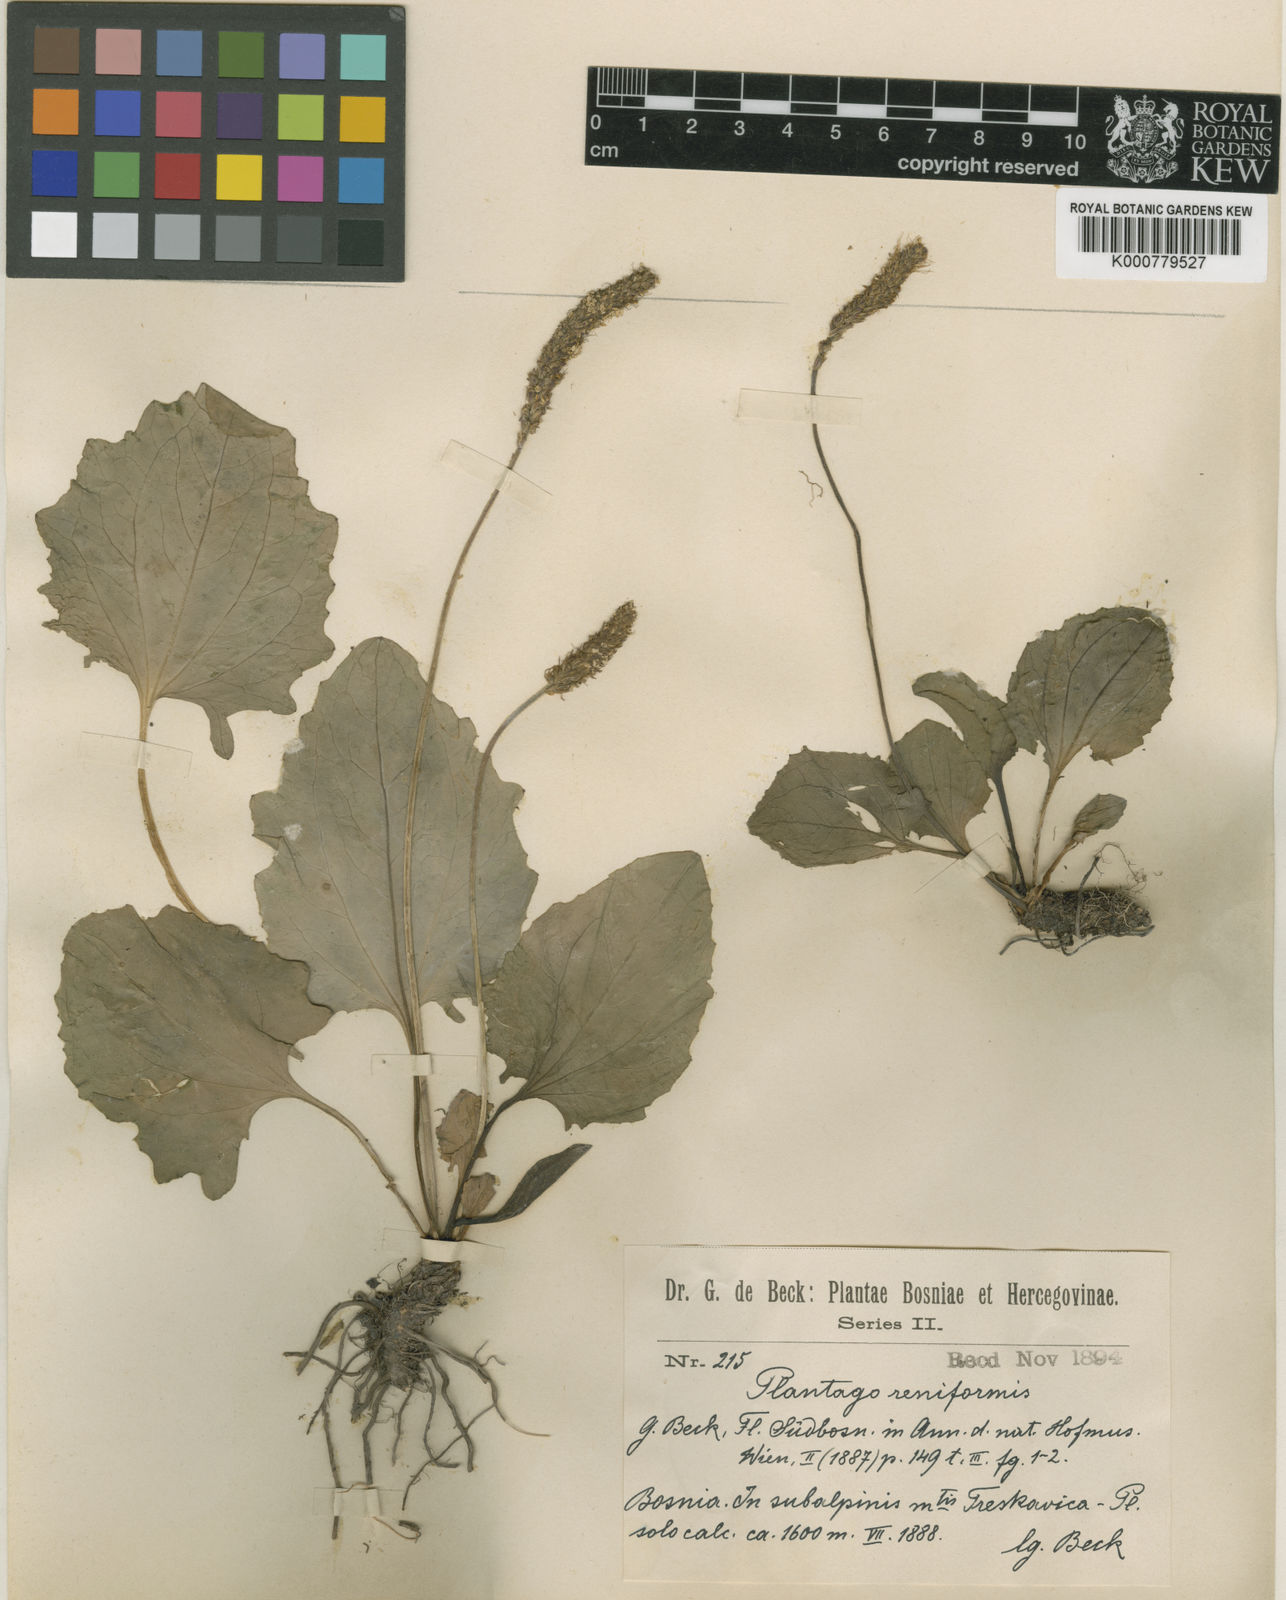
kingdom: Plantae
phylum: Tracheophyta
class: Magnoliopsida
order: Lamiales
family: Plantaginaceae
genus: Plantago
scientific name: Plantago reniformis
